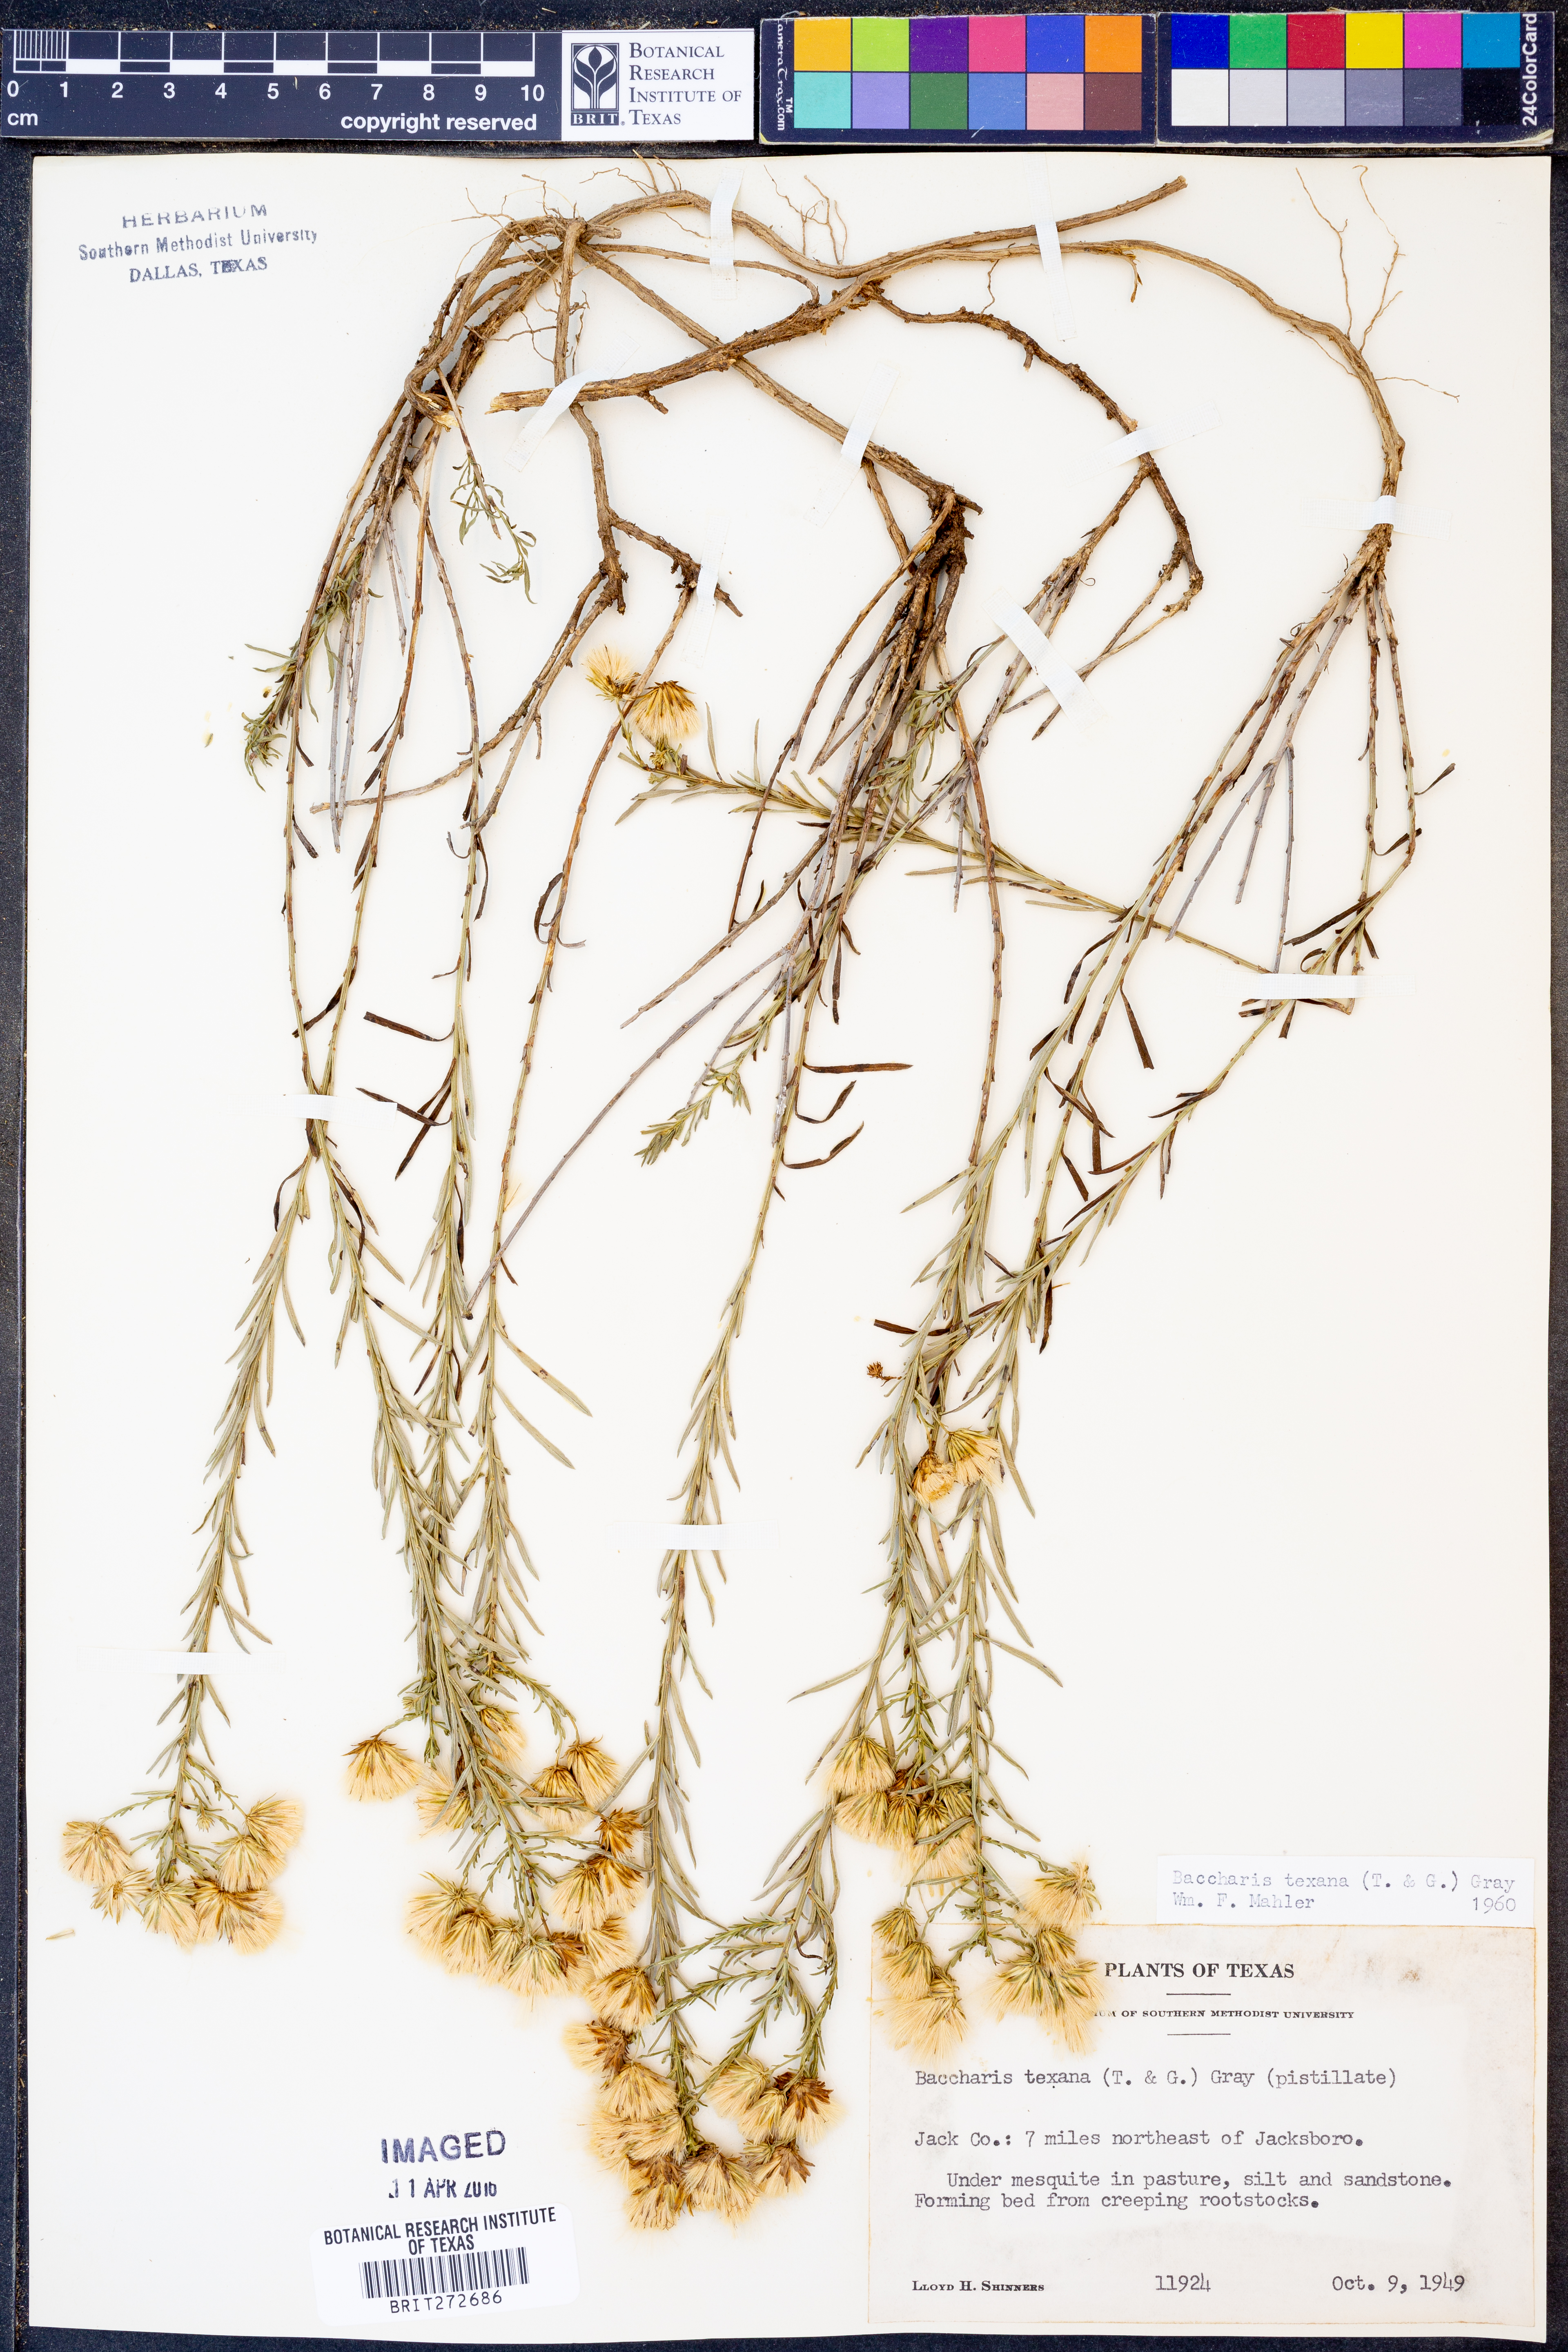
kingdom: Plantae
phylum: Tracheophyta
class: Magnoliopsida
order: Asterales
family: Asteraceae
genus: Baccharis
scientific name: Baccharis texana
